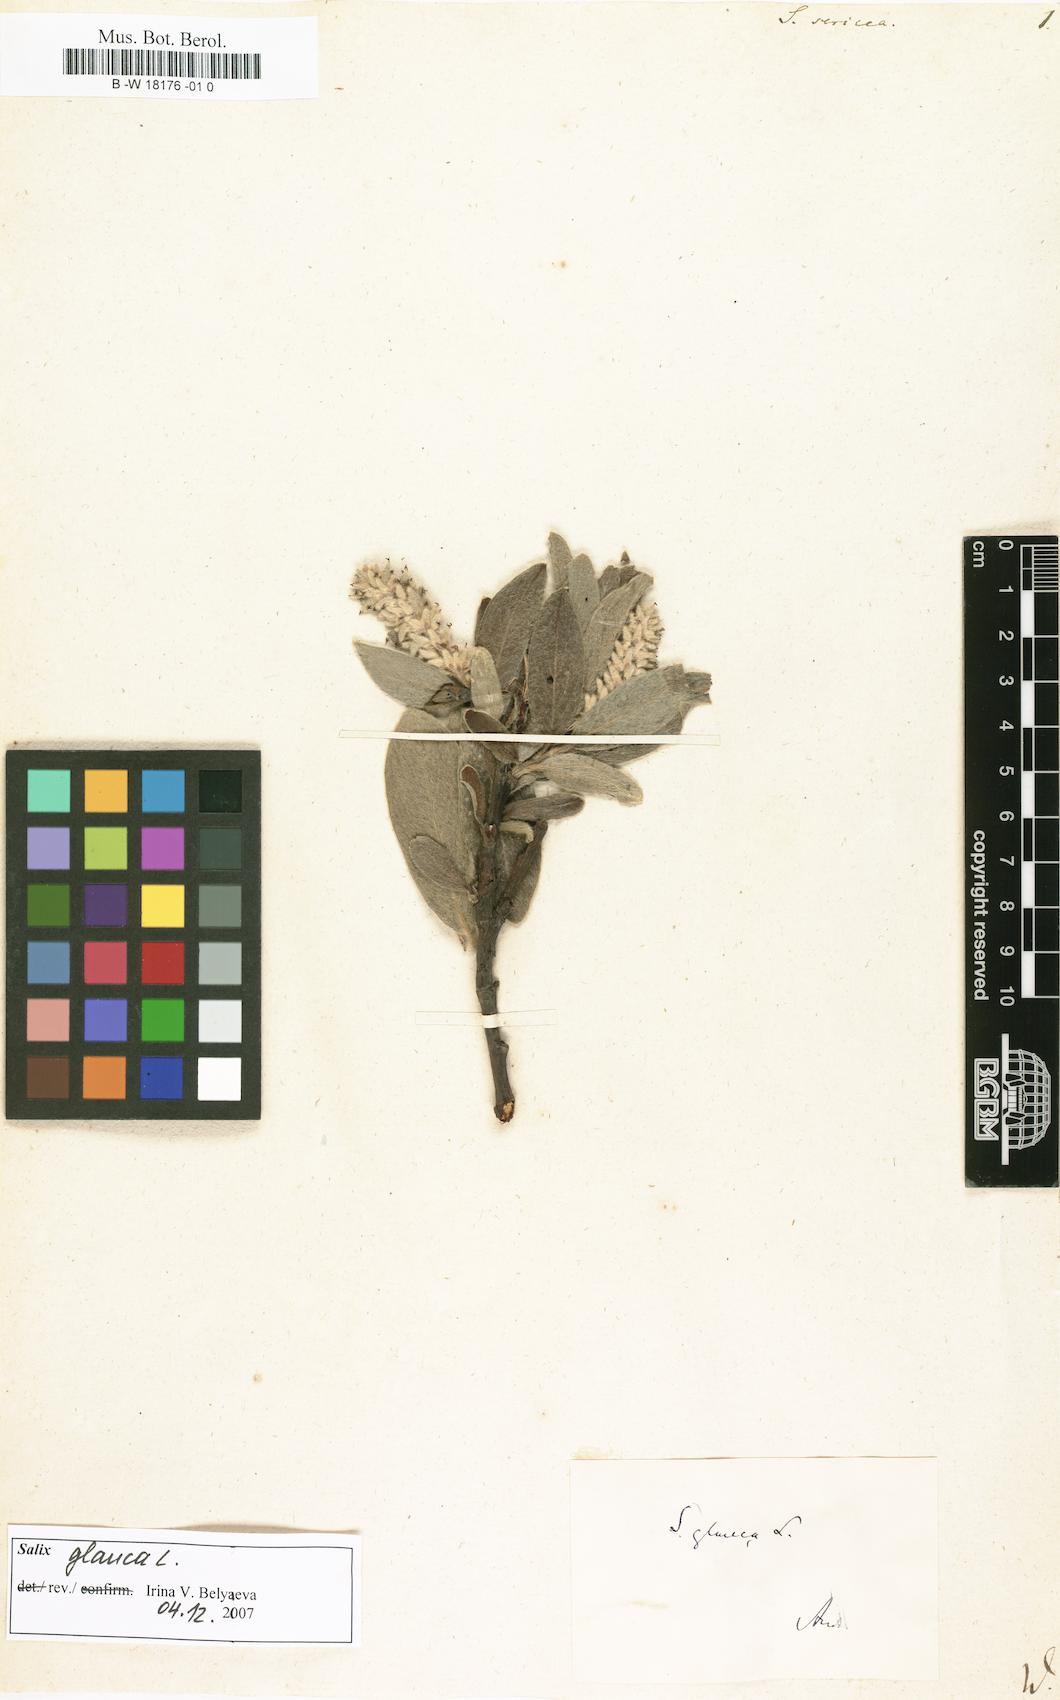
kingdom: Plantae
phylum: Tracheophyta
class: Magnoliopsida
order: Malpighiales
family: Salicaceae
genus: Salix
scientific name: Salix sericea
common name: Silky willow
